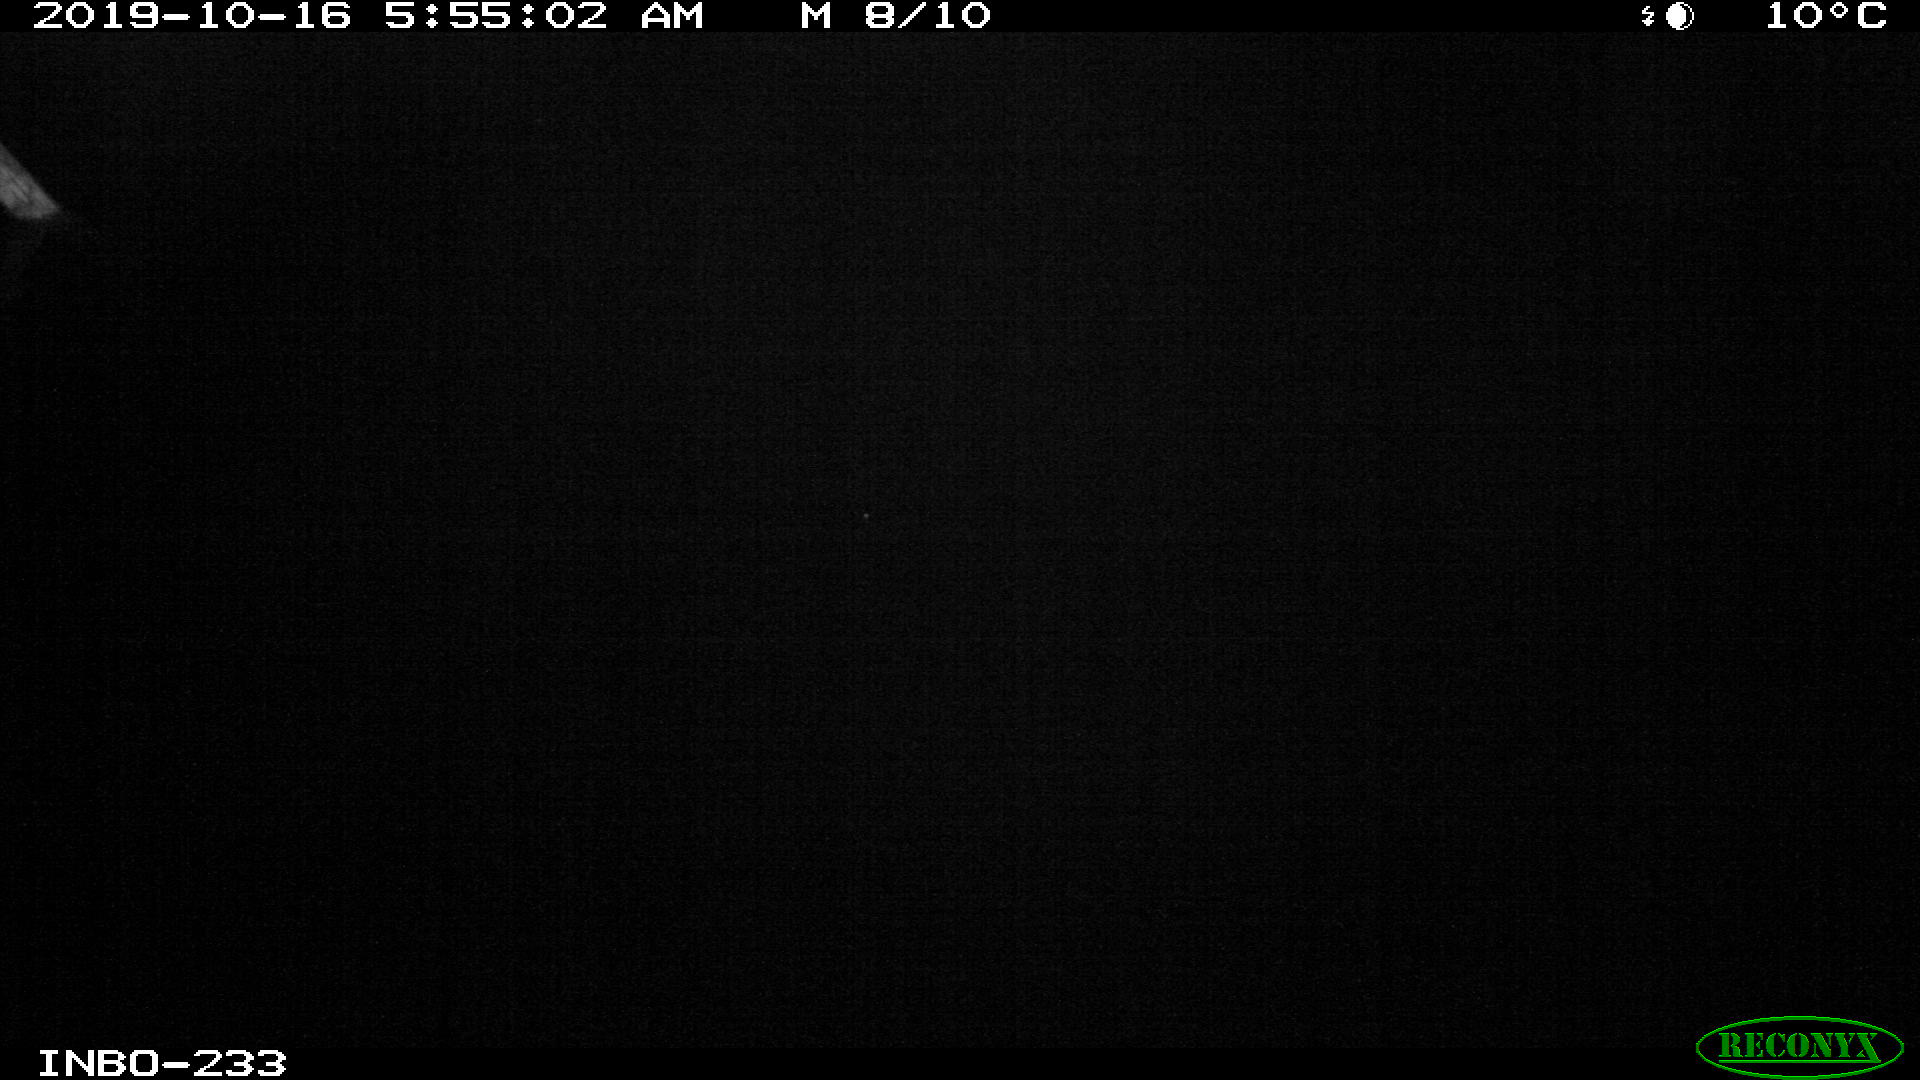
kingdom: Animalia
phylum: Chordata
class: Aves
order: Anseriformes
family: Anatidae
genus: Anas
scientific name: Anas platyrhynchos
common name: Mallard
